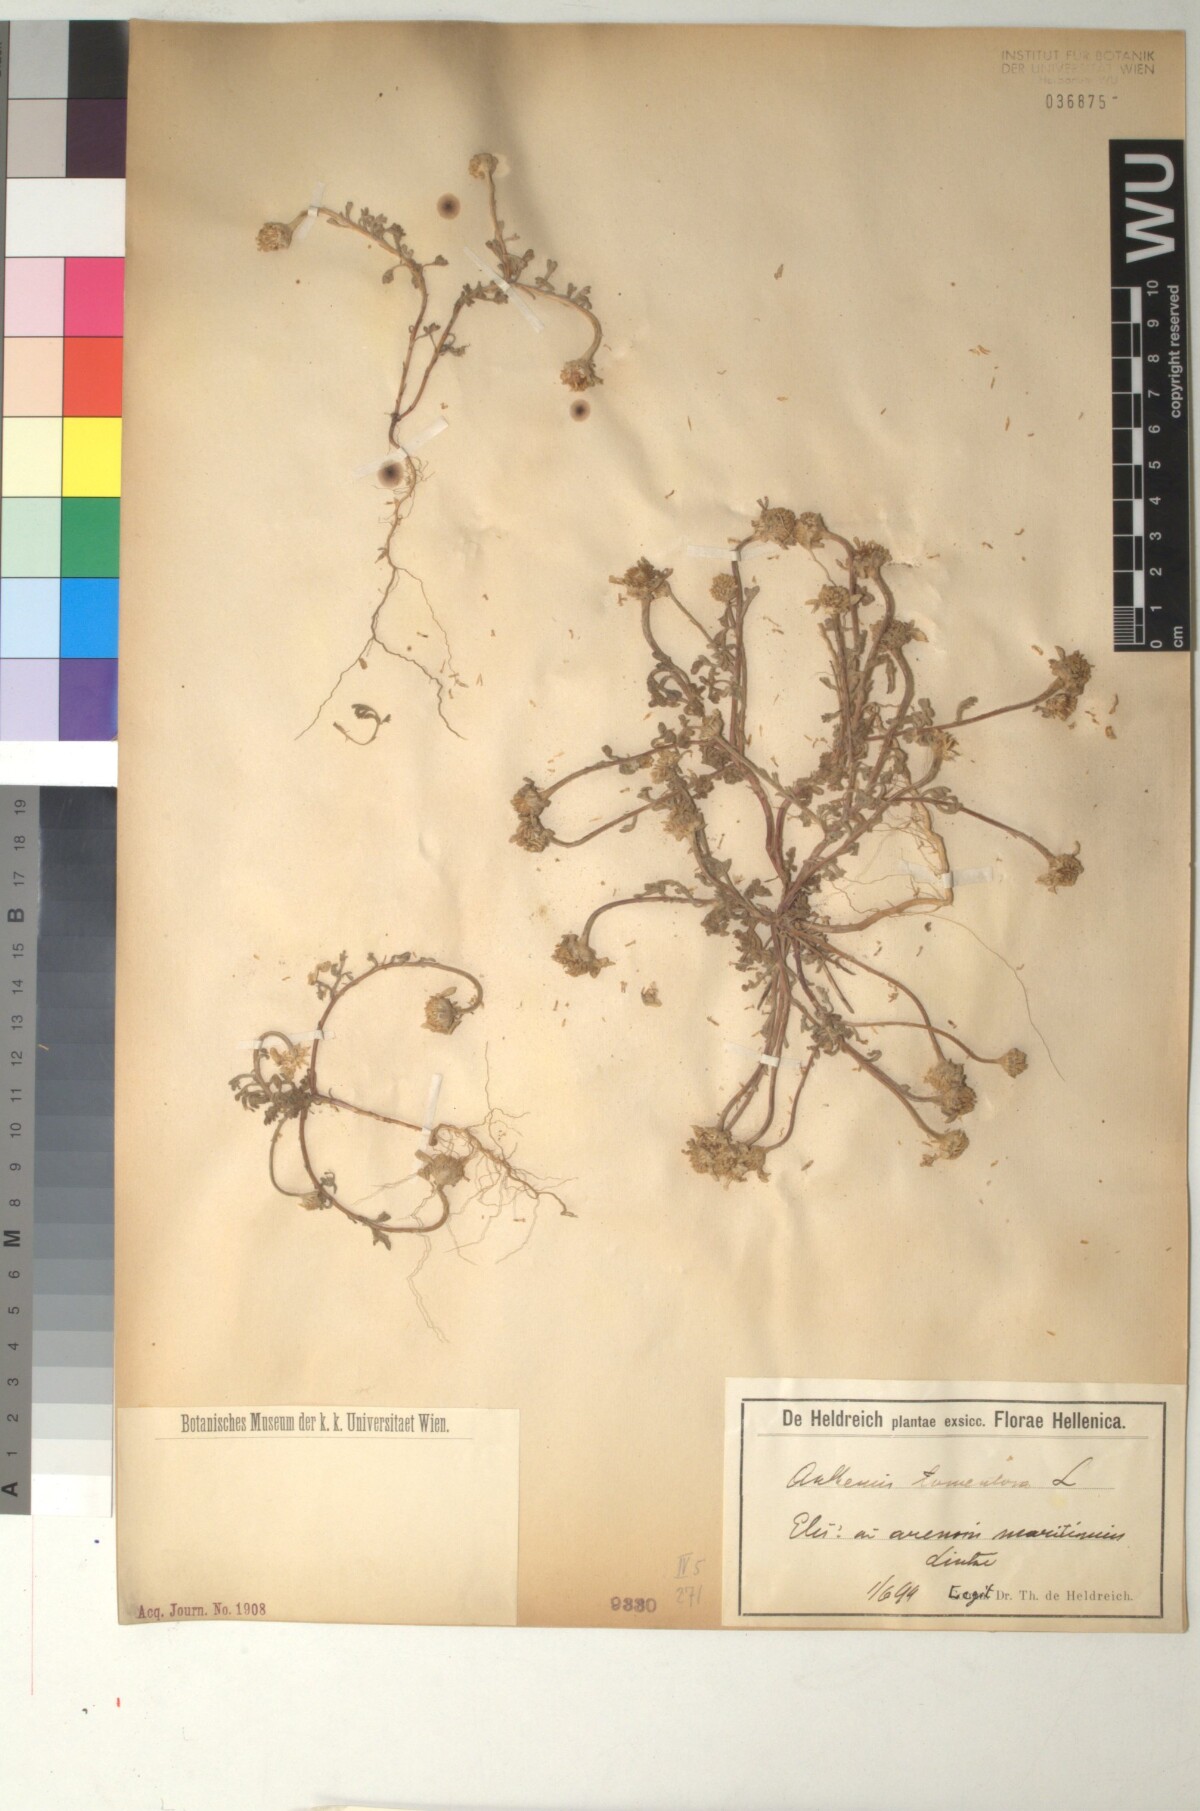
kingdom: Plantae
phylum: Tracheophyta
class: Magnoliopsida
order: Asterales
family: Asteraceae
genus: Anthemis
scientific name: Anthemis tomentosa
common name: Woolly chamomile
